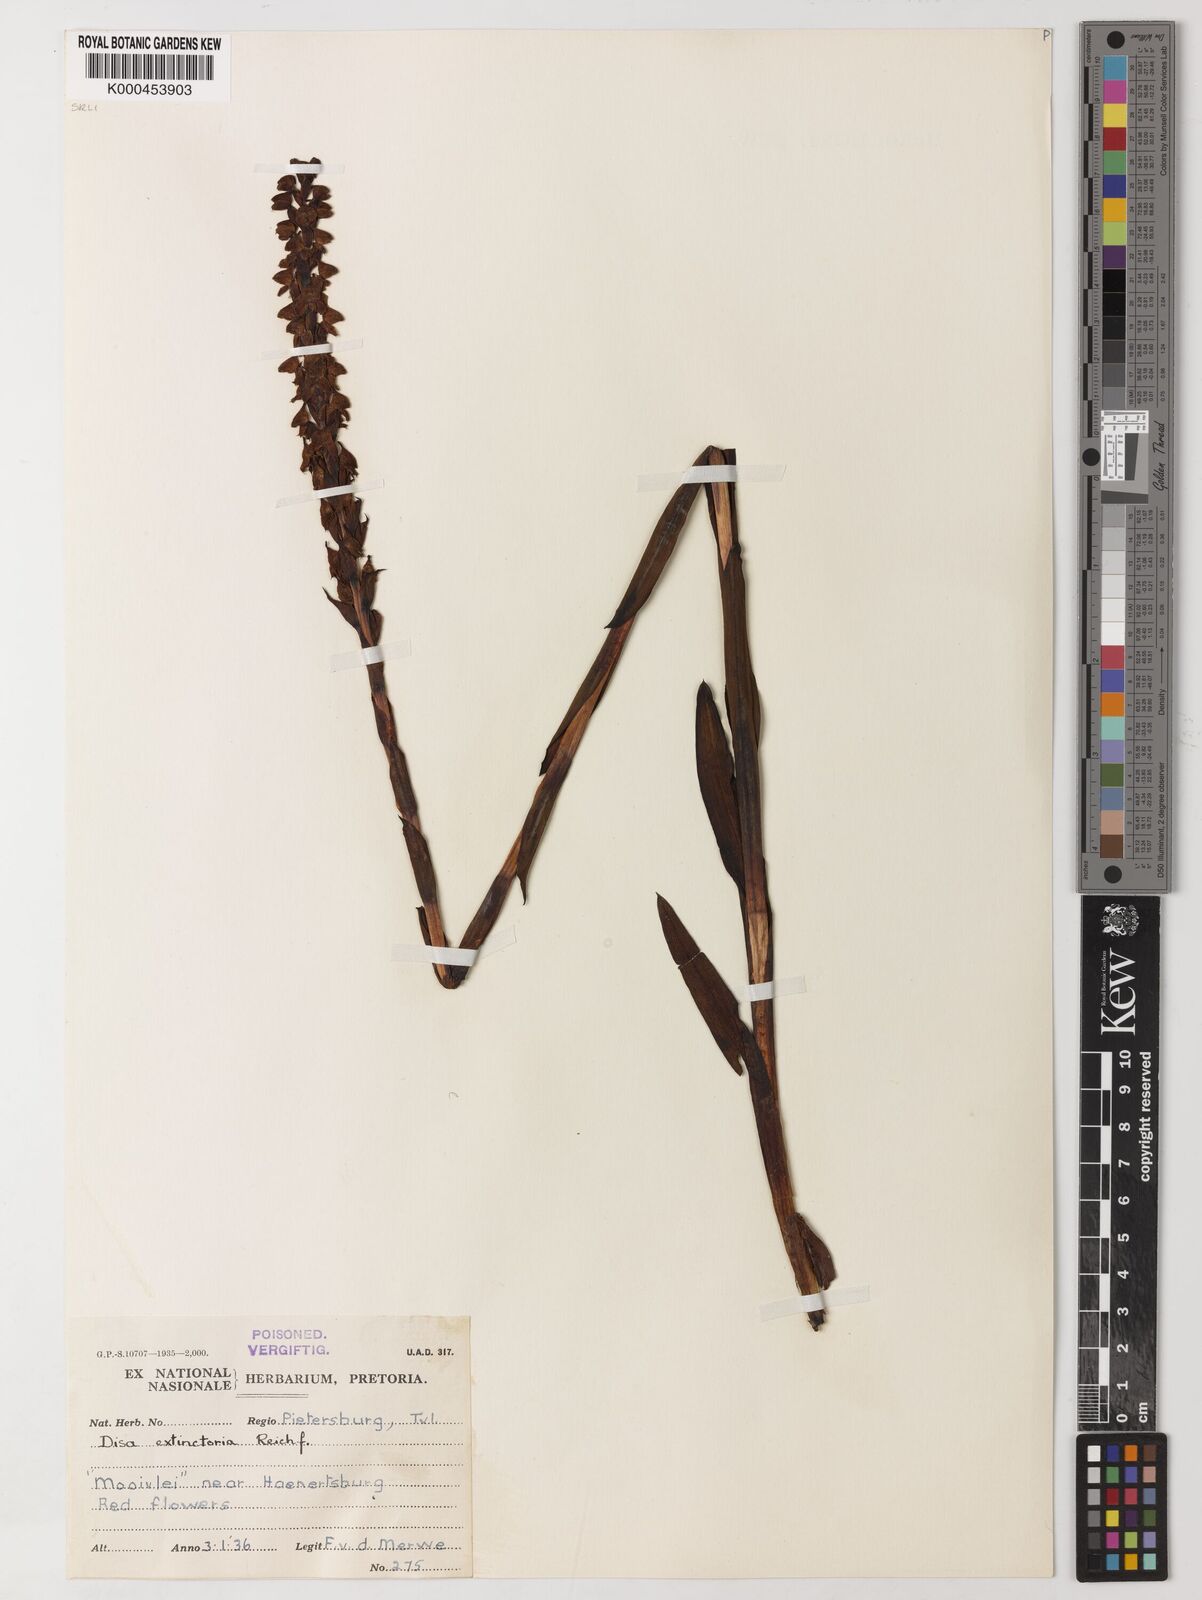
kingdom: Plantae
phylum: Tracheophyta
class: Liliopsida
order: Asparagales
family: Orchidaceae
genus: Disa
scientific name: Disa extinctoria
